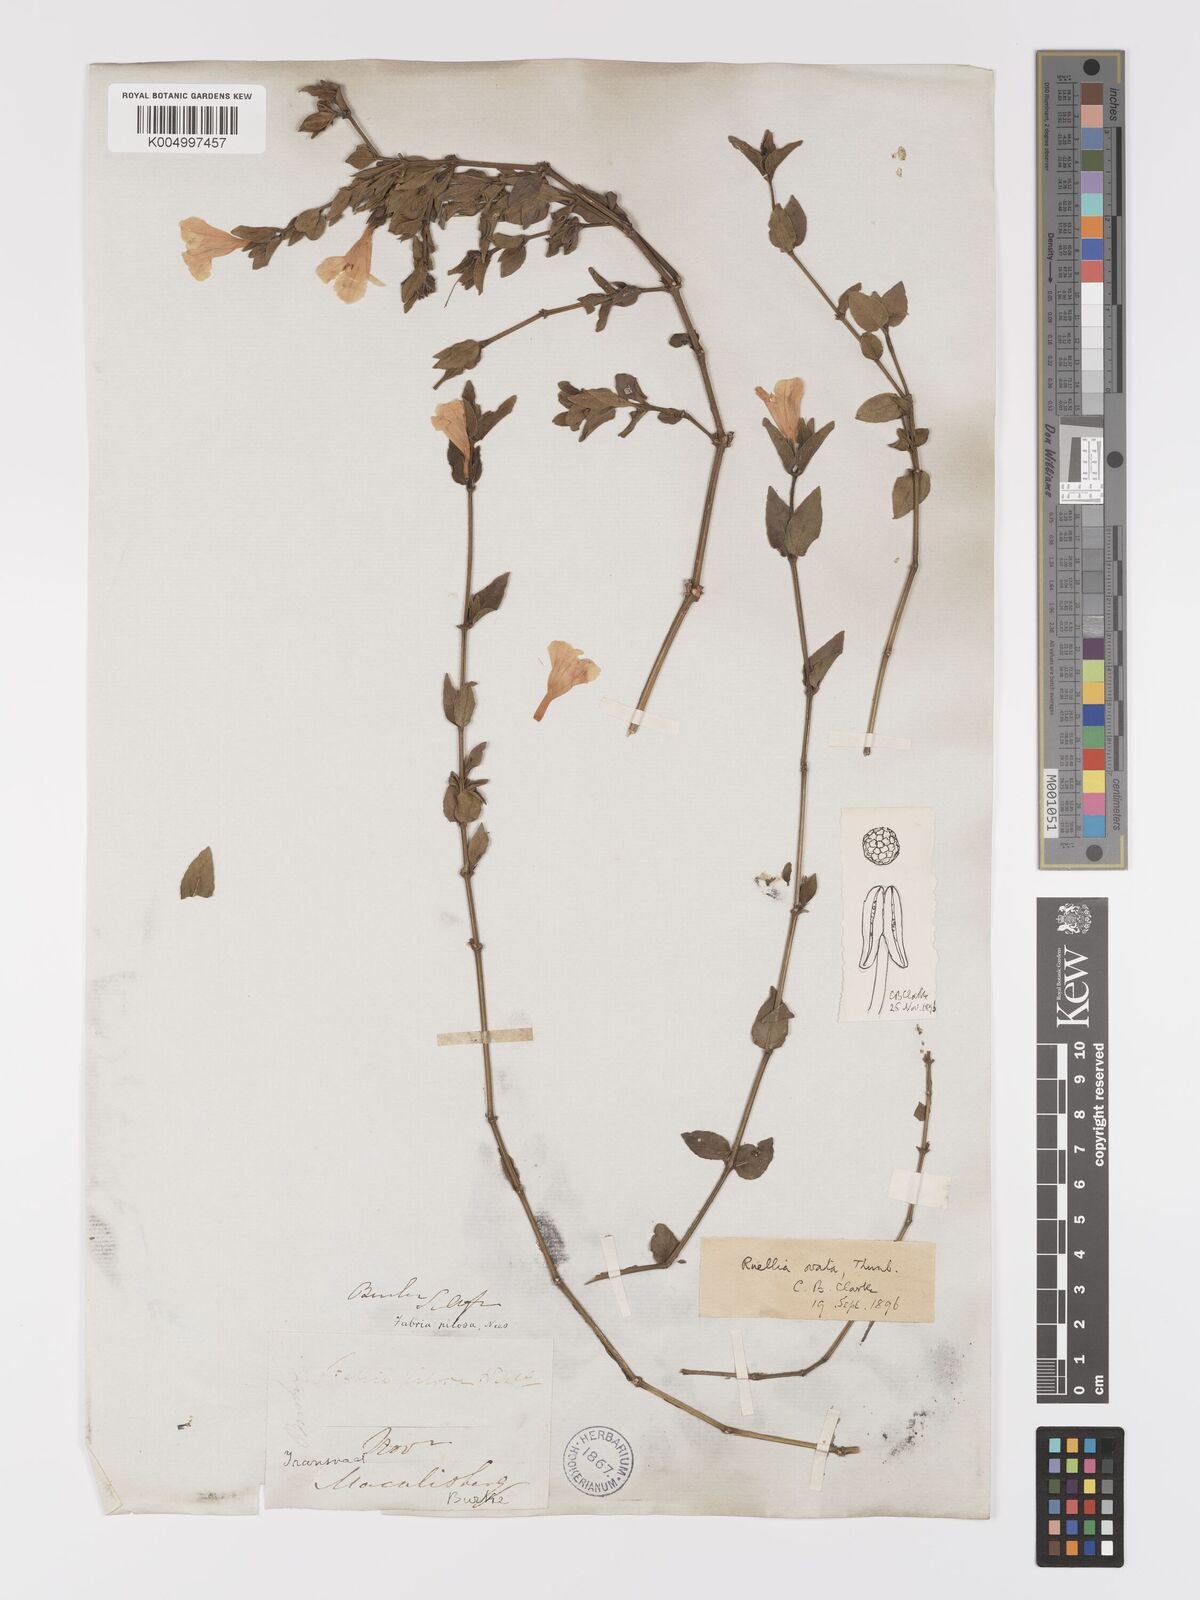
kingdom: Plantae
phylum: Tracheophyta
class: Magnoliopsida
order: Lamiales
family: Acanthaceae
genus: Ruellia
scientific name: Ruellia cordata
